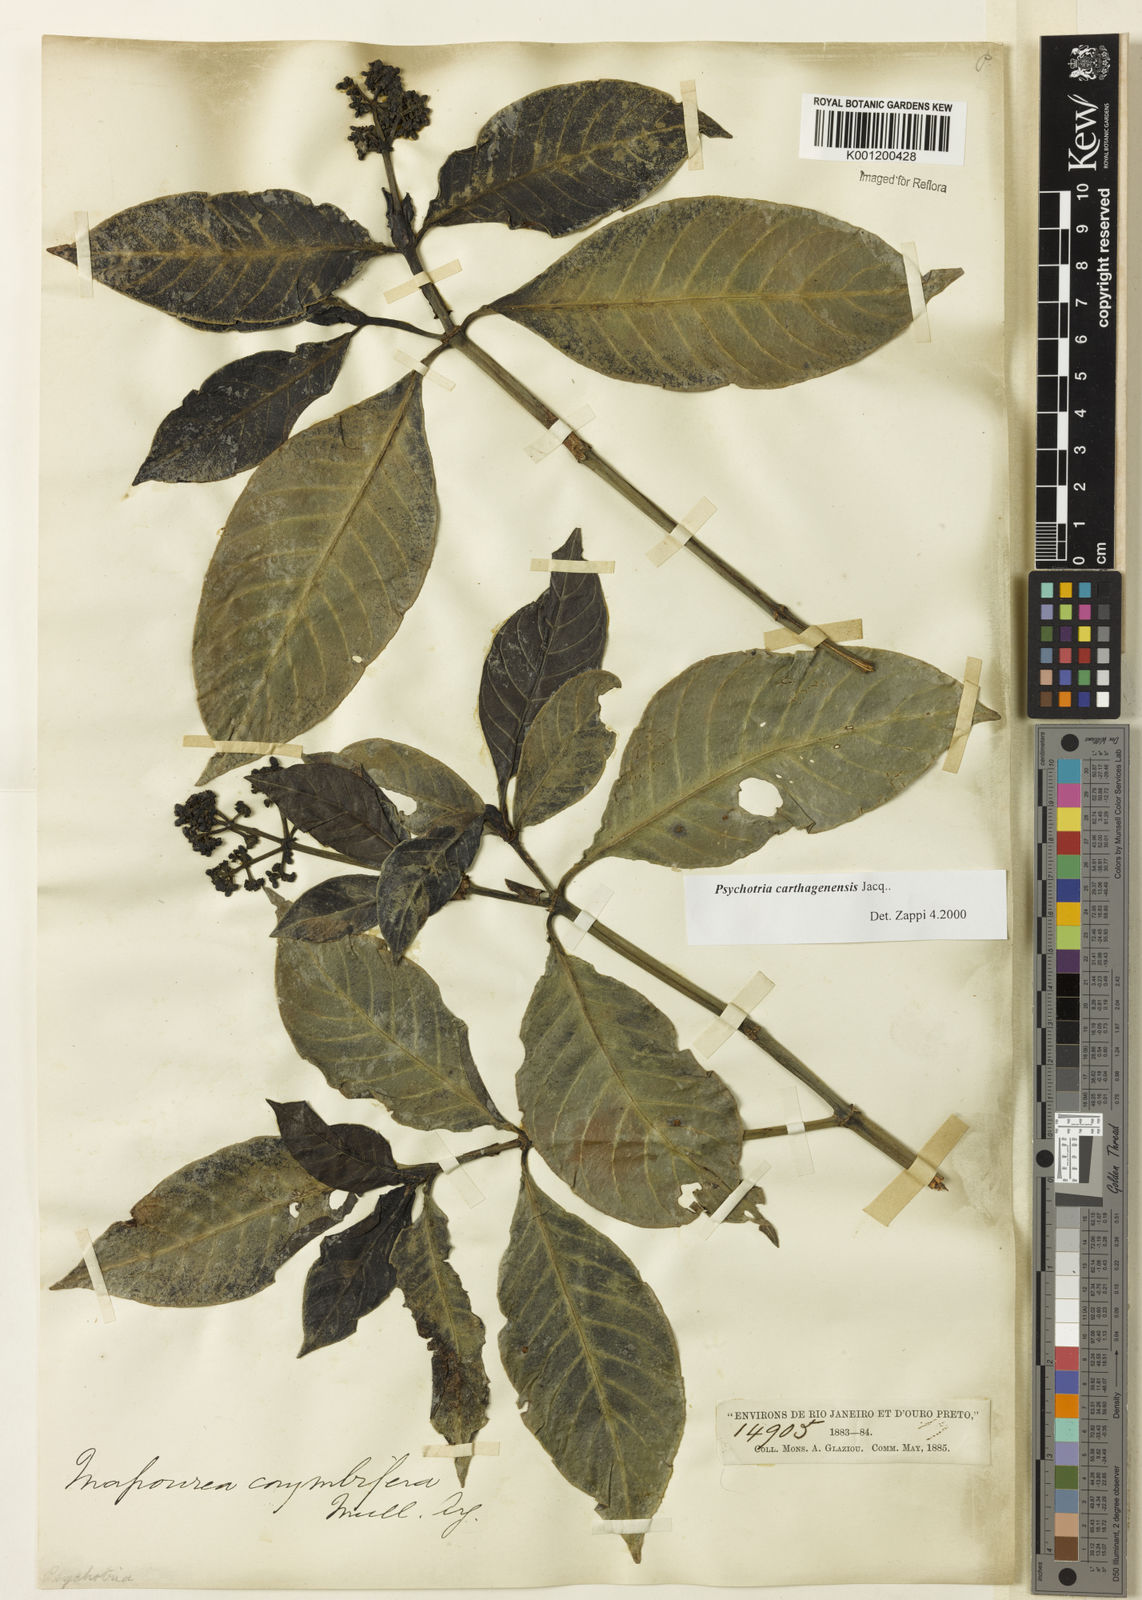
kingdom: Plantae
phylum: Tracheophyta
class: Magnoliopsida
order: Gentianales
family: Rubiaceae
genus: Psychotria
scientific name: Psychotria carthagenensis
